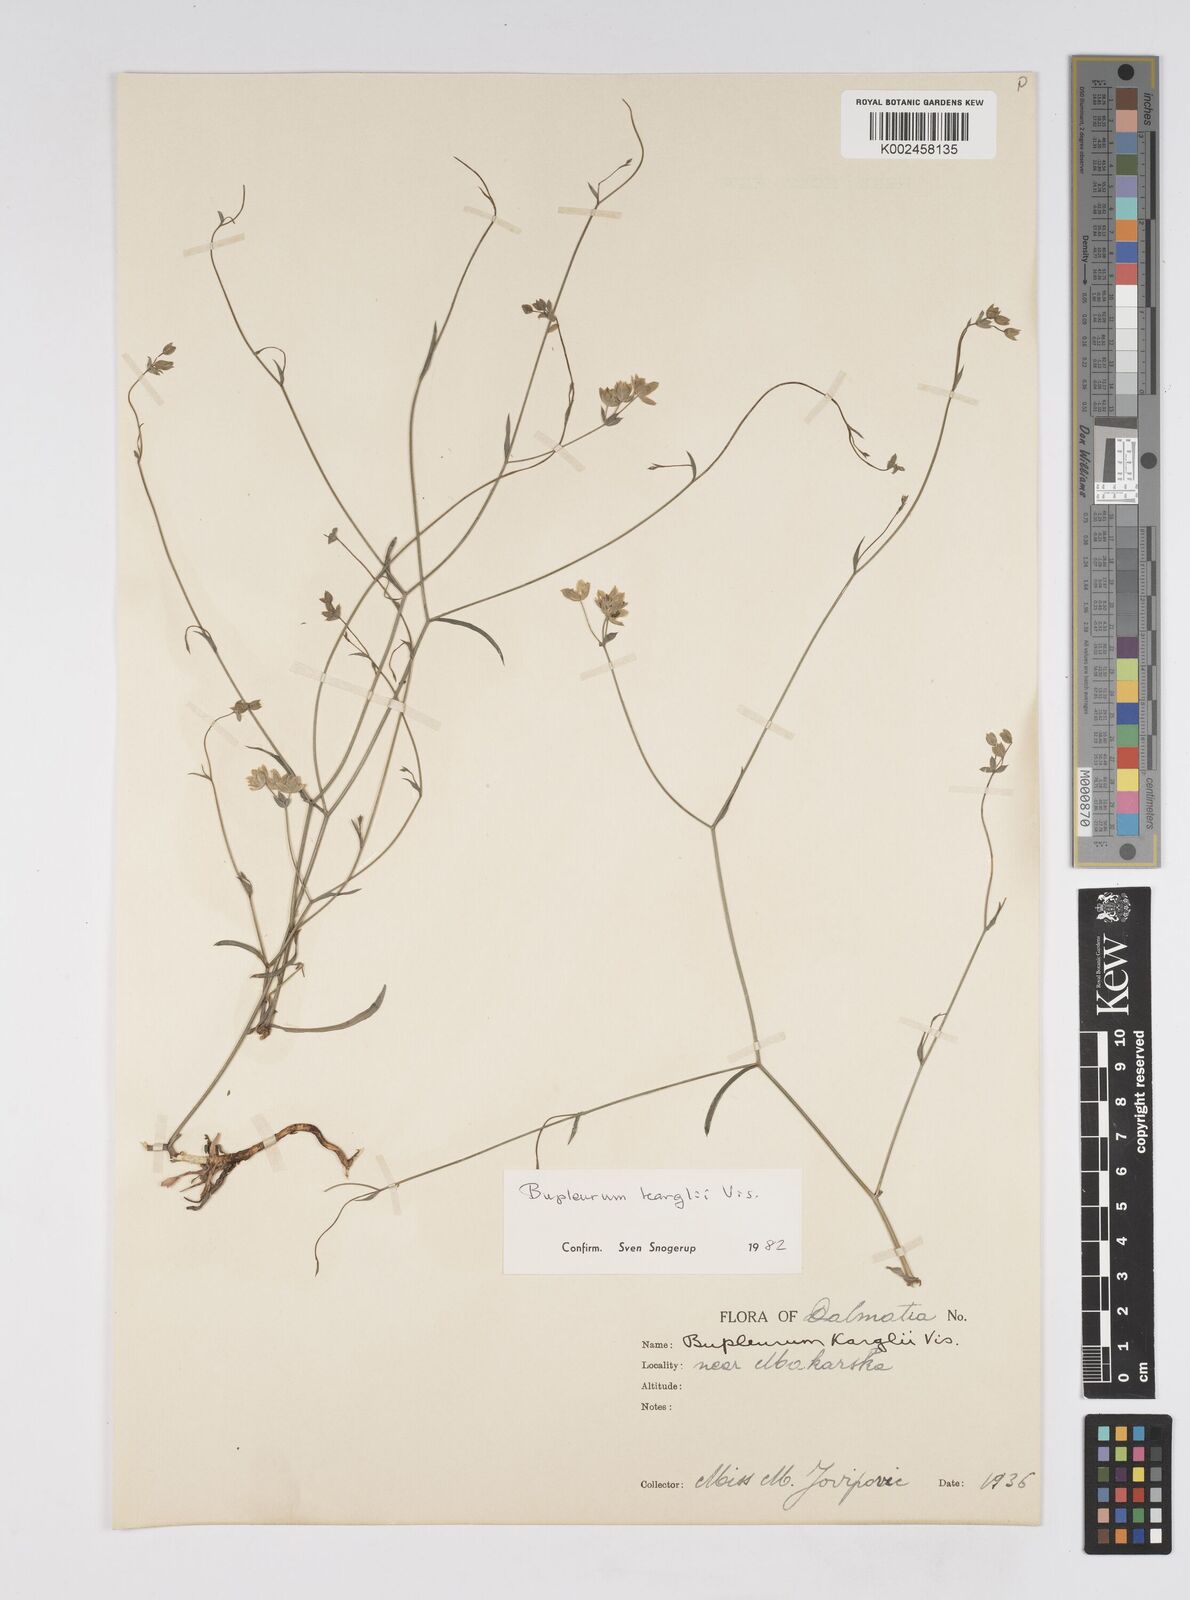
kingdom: Plantae
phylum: Tracheophyta
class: Magnoliopsida
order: Apiales
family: Apiaceae
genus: Bupleurum
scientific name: Bupleurum karglii
